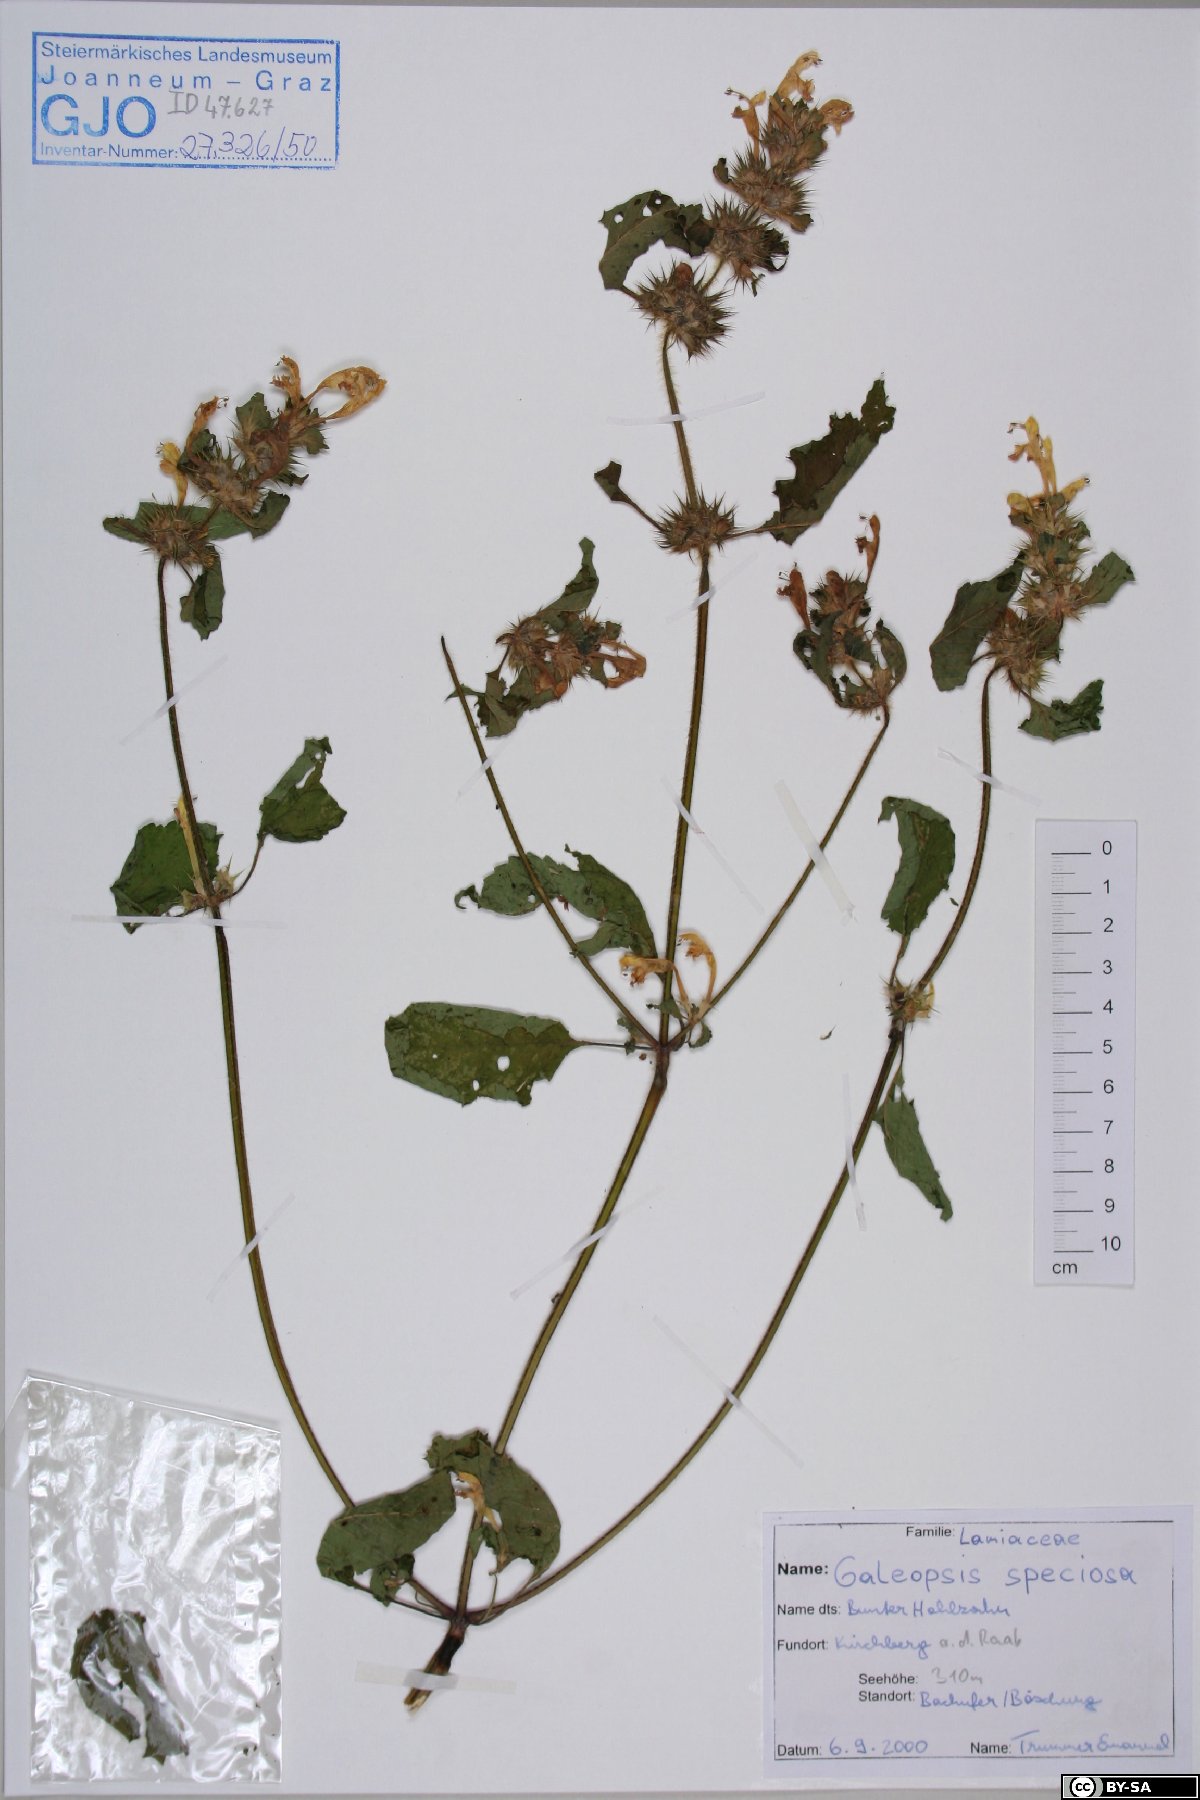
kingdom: Plantae
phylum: Tracheophyta
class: Magnoliopsida
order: Lamiales
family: Lamiaceae
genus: Galeopsis
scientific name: Galeopsis speciosa
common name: Large-flowered hemp-nettle
